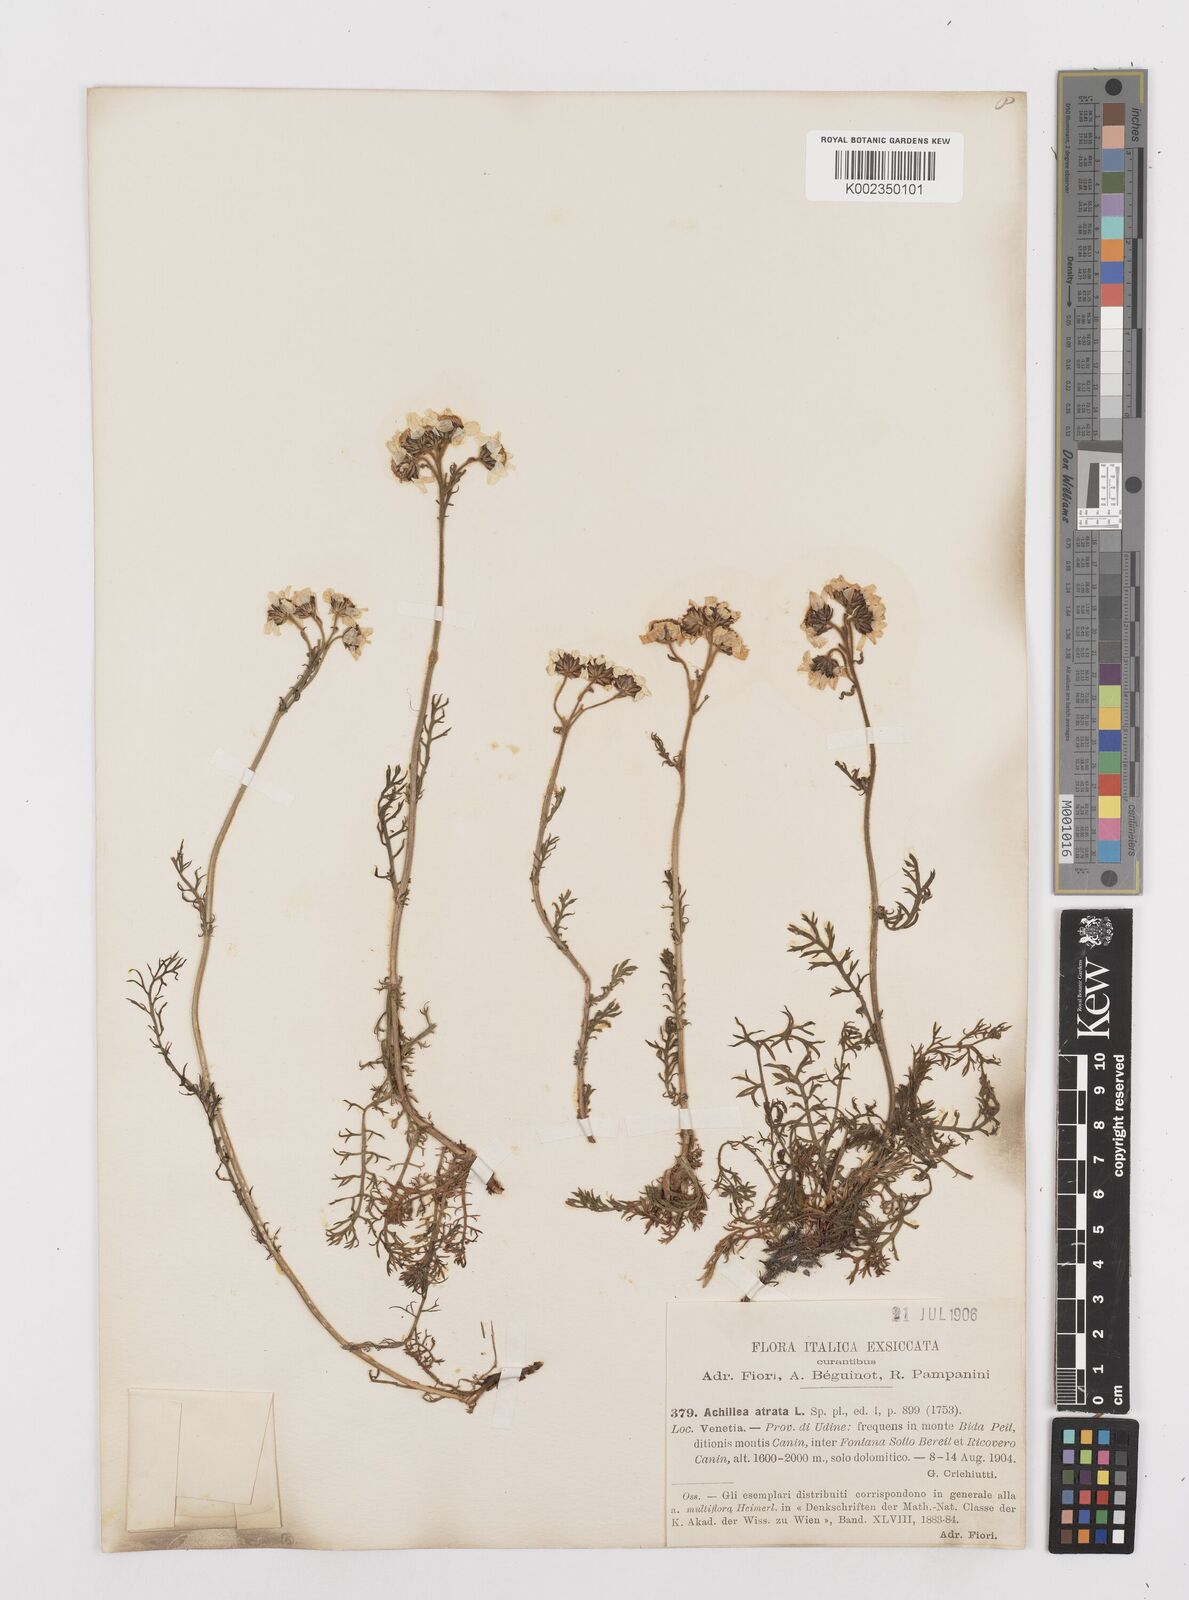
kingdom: Plantae
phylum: Tracheophyta
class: Magnoliopsida
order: Asterales
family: Asteraceae
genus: Achillea
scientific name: Achillea atrata
